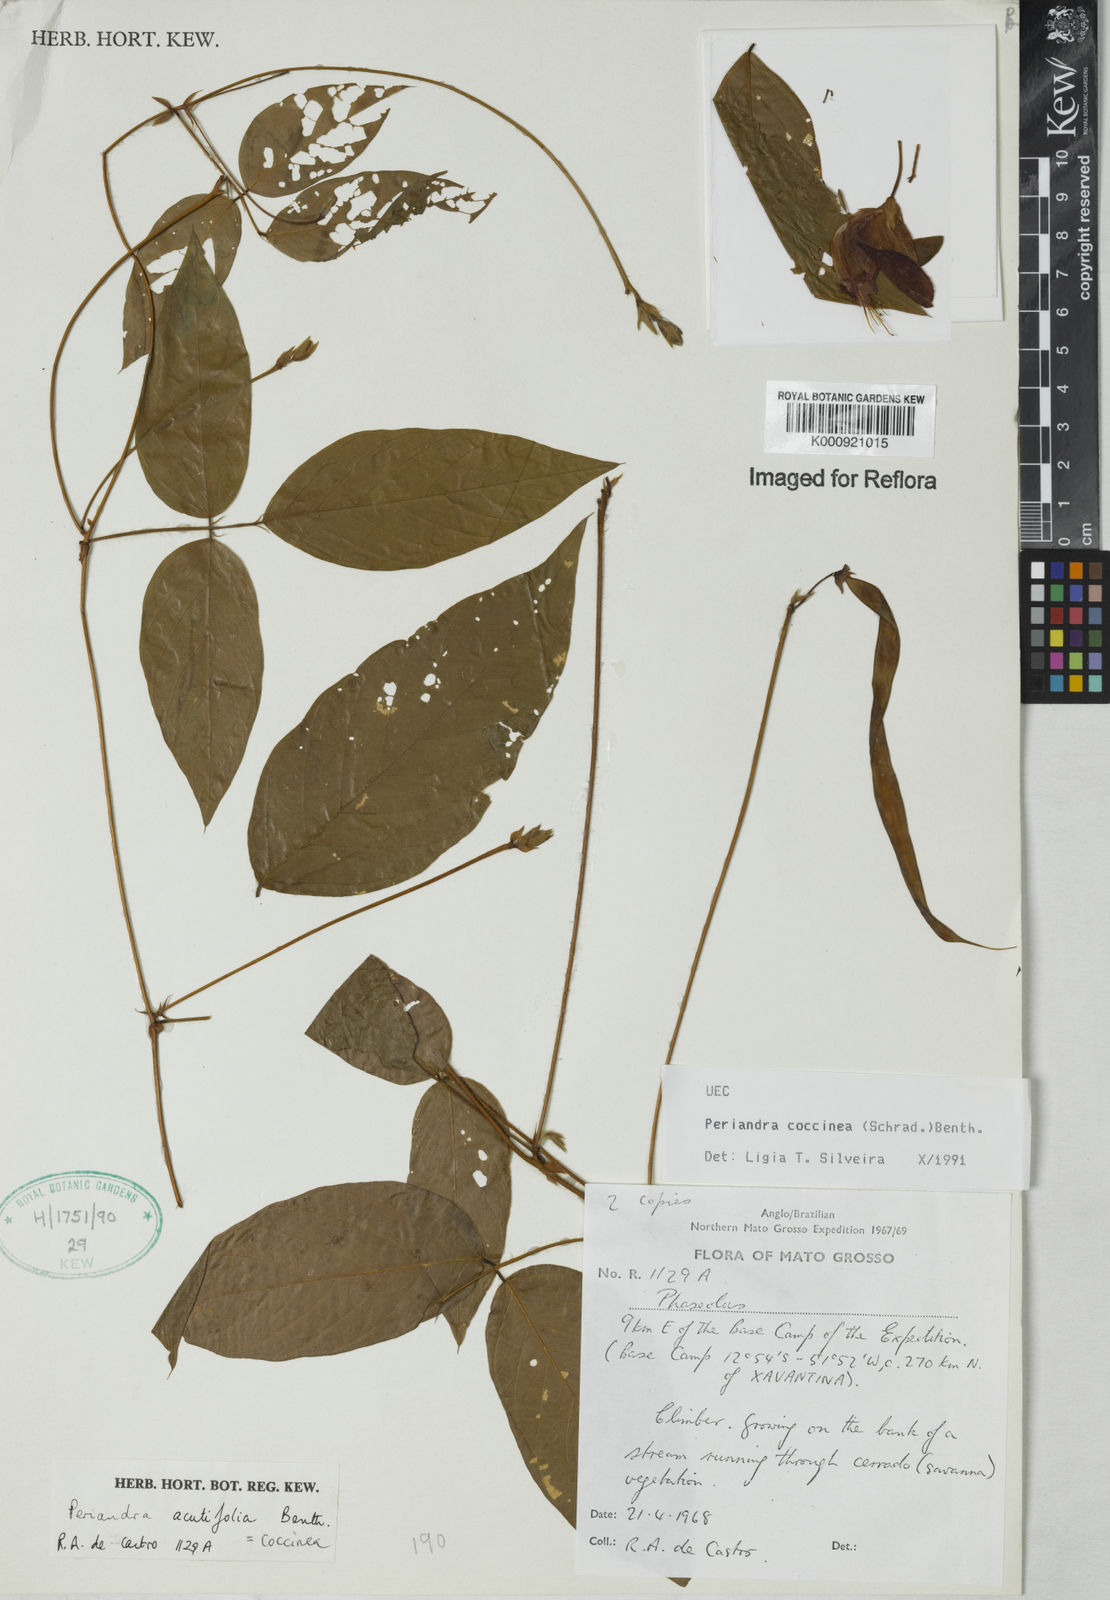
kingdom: Plantae
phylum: Tracheophyta
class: Magnoliopsida
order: Fabales
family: Fabaceae
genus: Periandra
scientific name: Periandra coccinea
